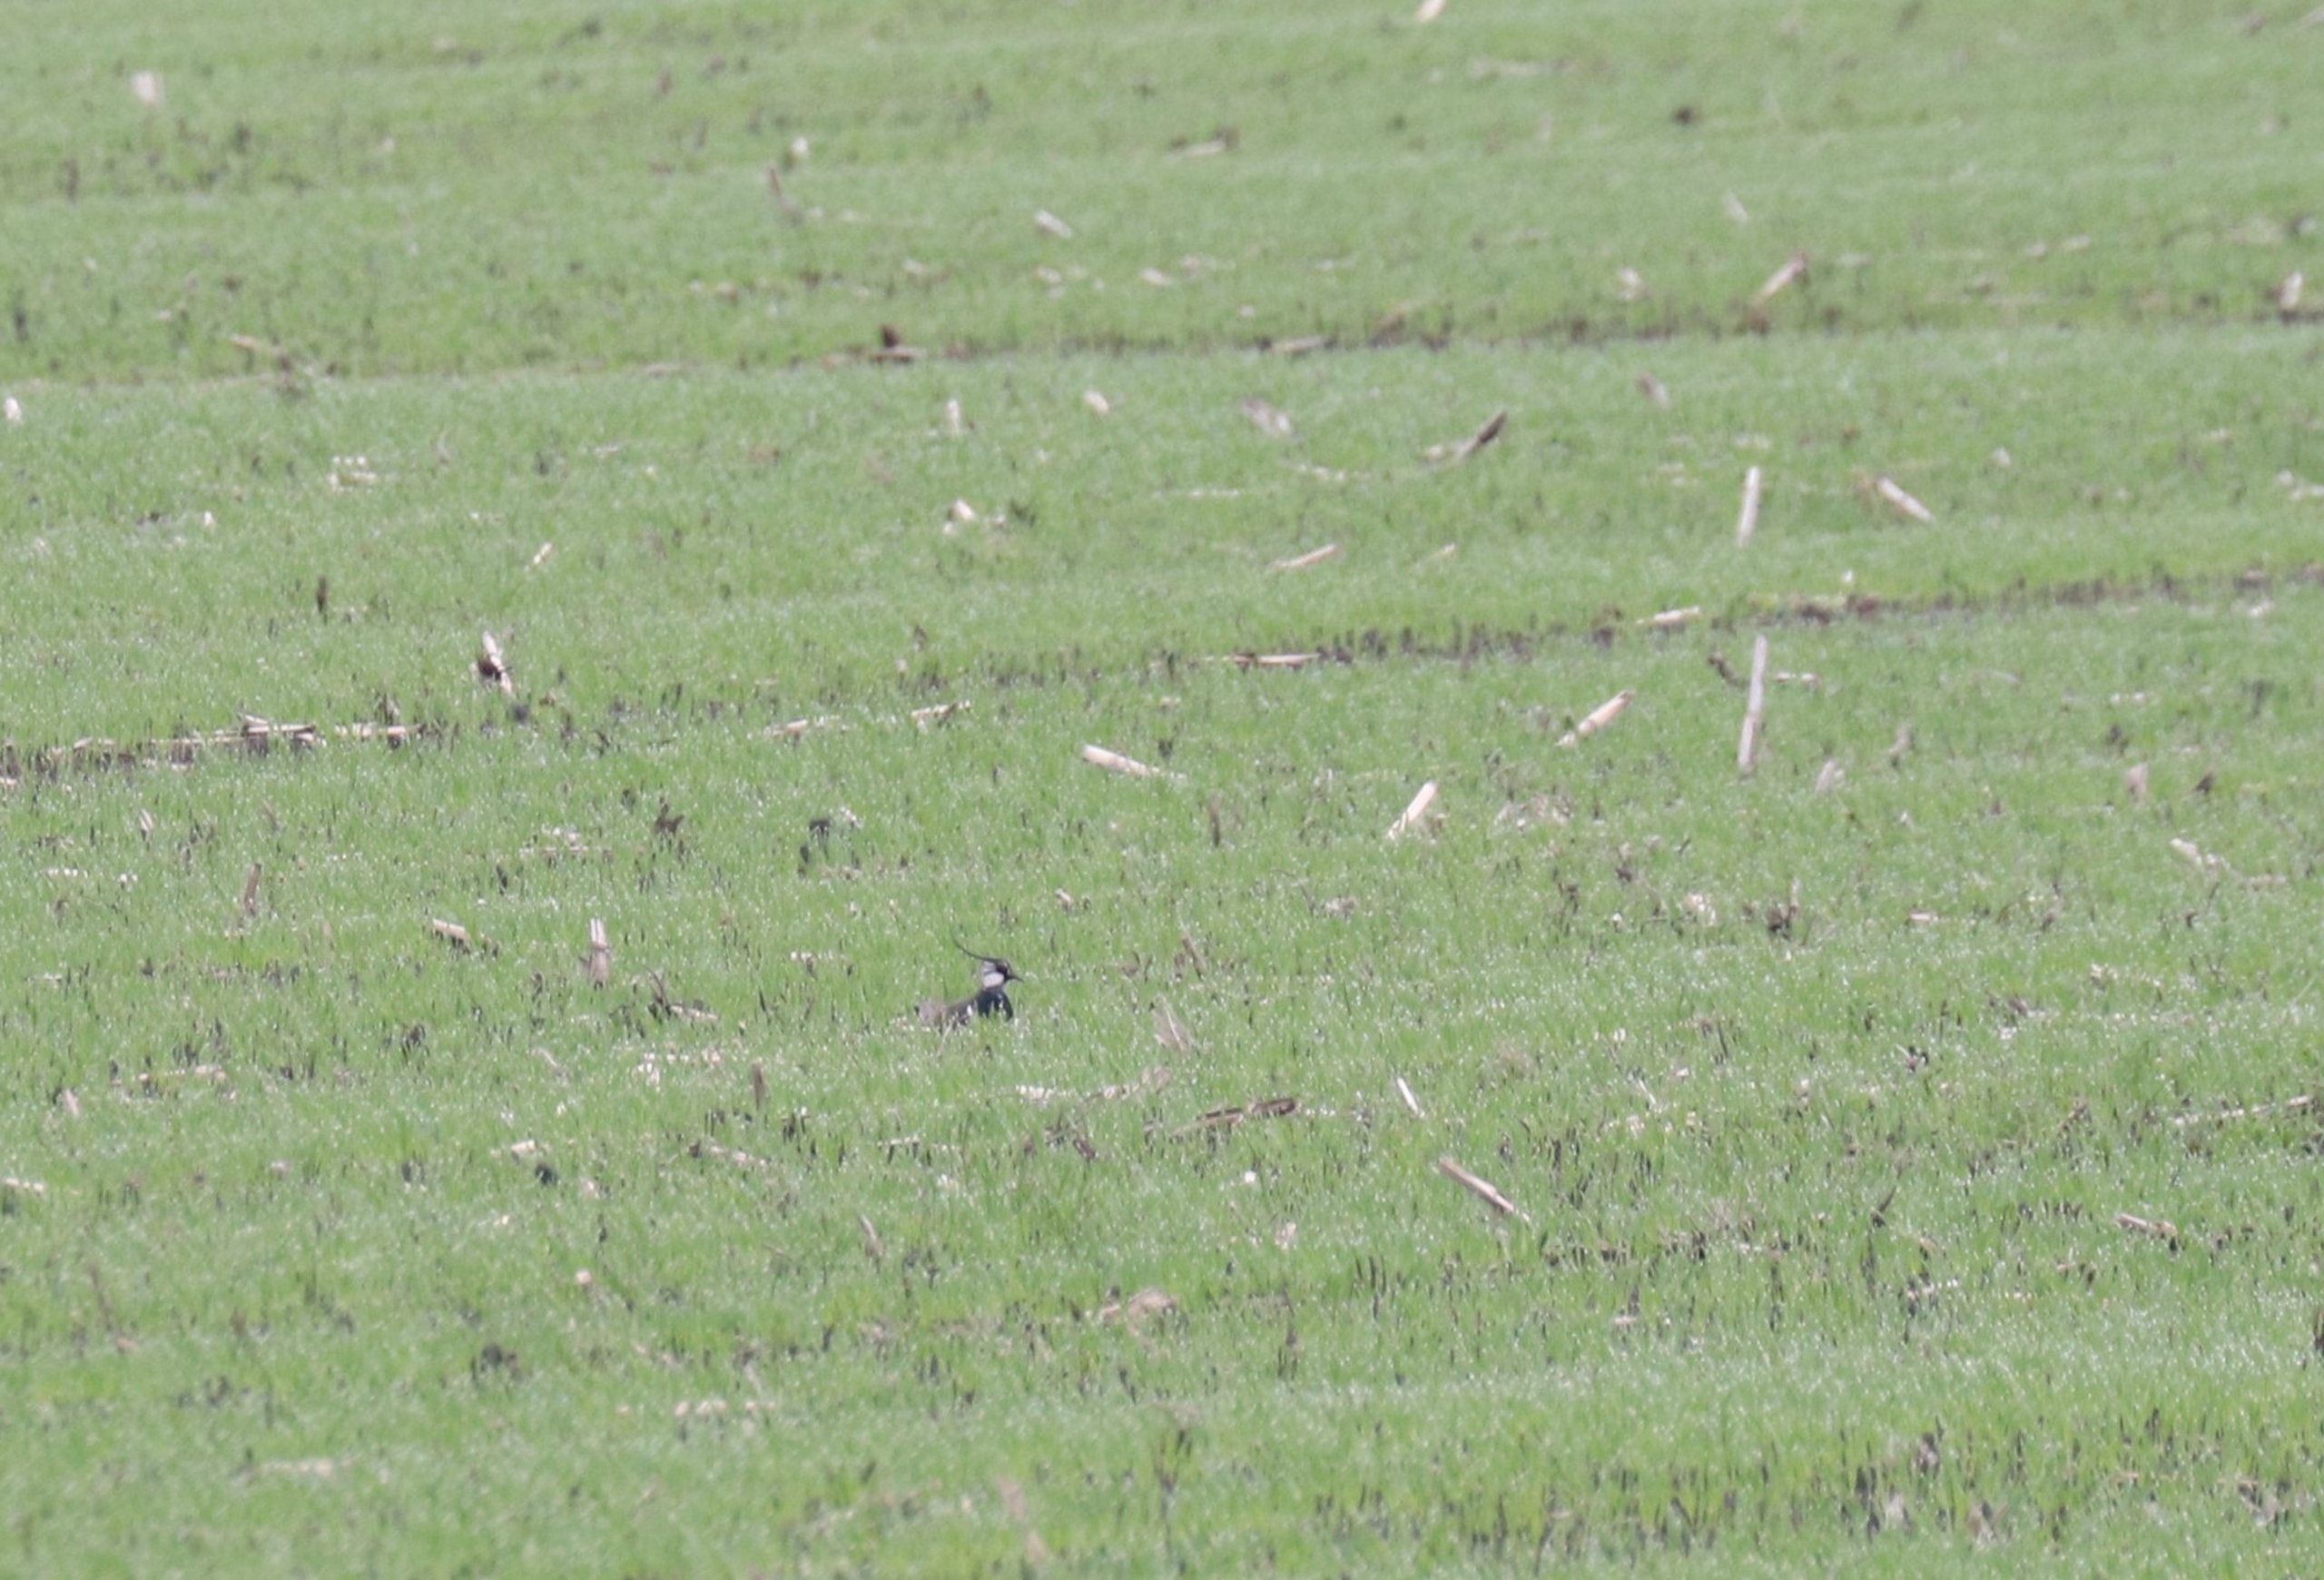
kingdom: Animalia
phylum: Chordata
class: Aves
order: Charadriiformes
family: Charadriidae
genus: Vanellus
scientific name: Vanellus vanellus
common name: Vibe
